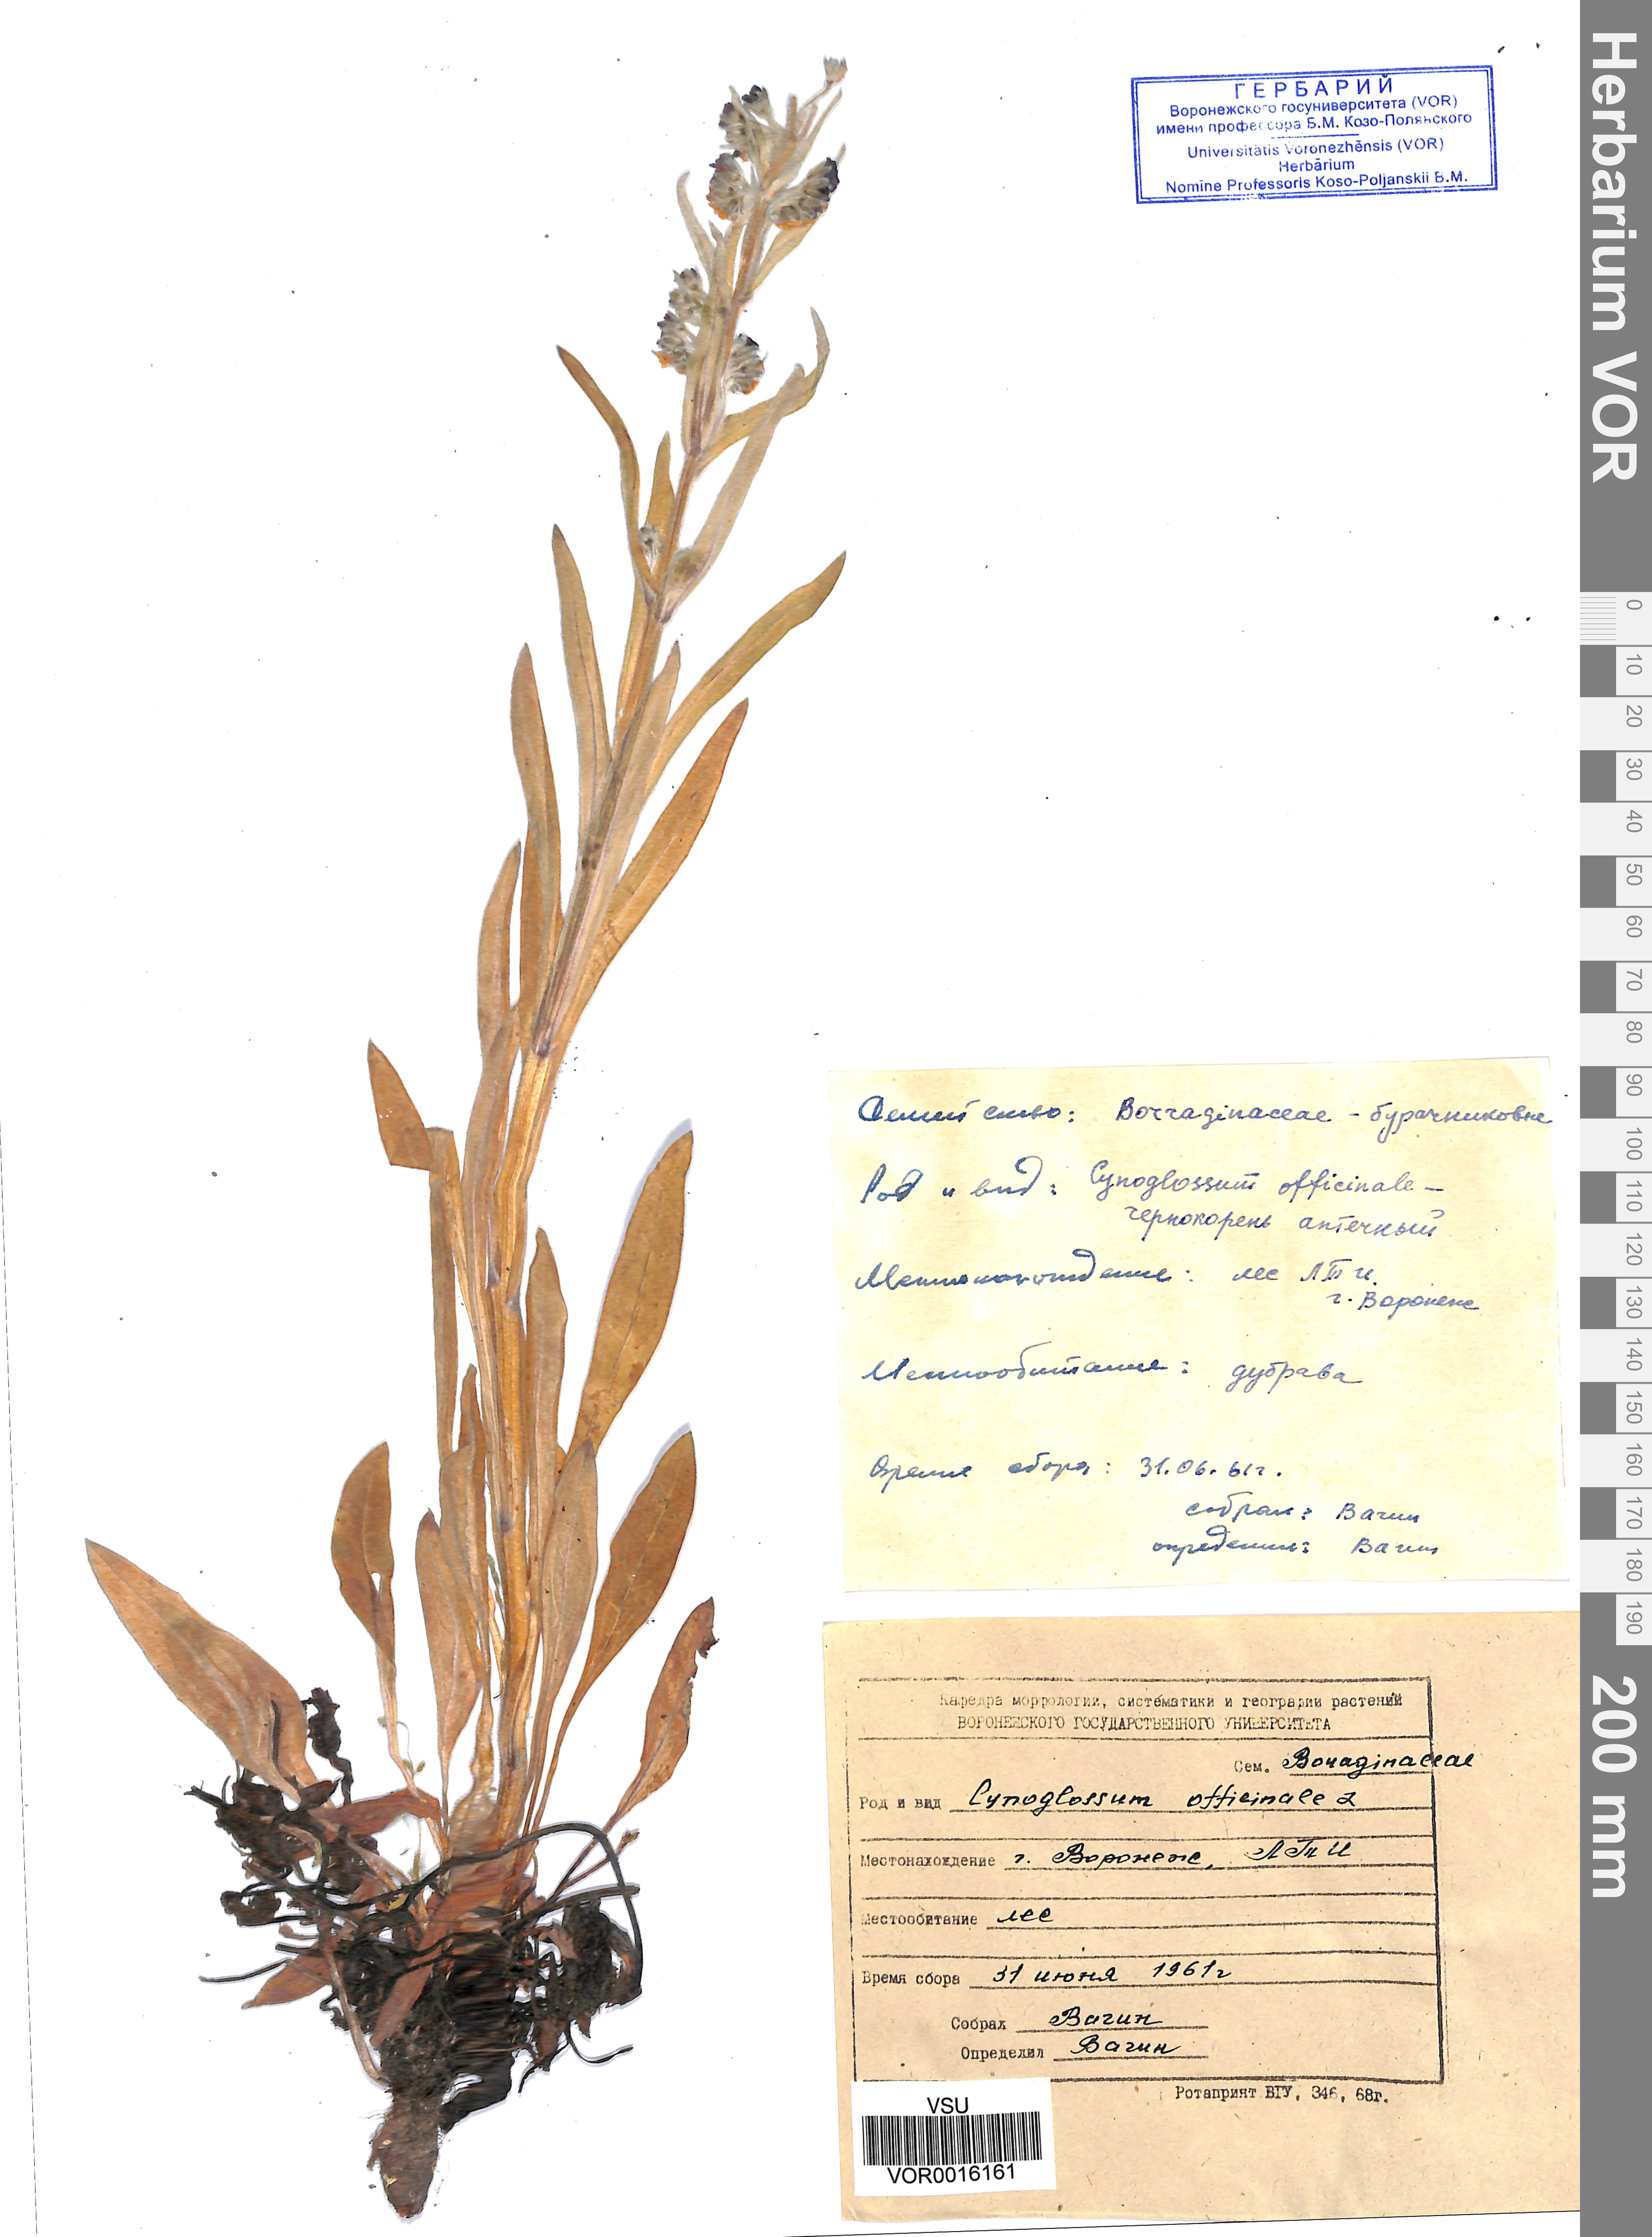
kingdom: Plantae
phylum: Tracheophyta
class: Magnoliopsida
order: Boraginales
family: Boraginaceae
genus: Cynoglossum
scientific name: Cynoglossum officinale
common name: Hound's-tongue
